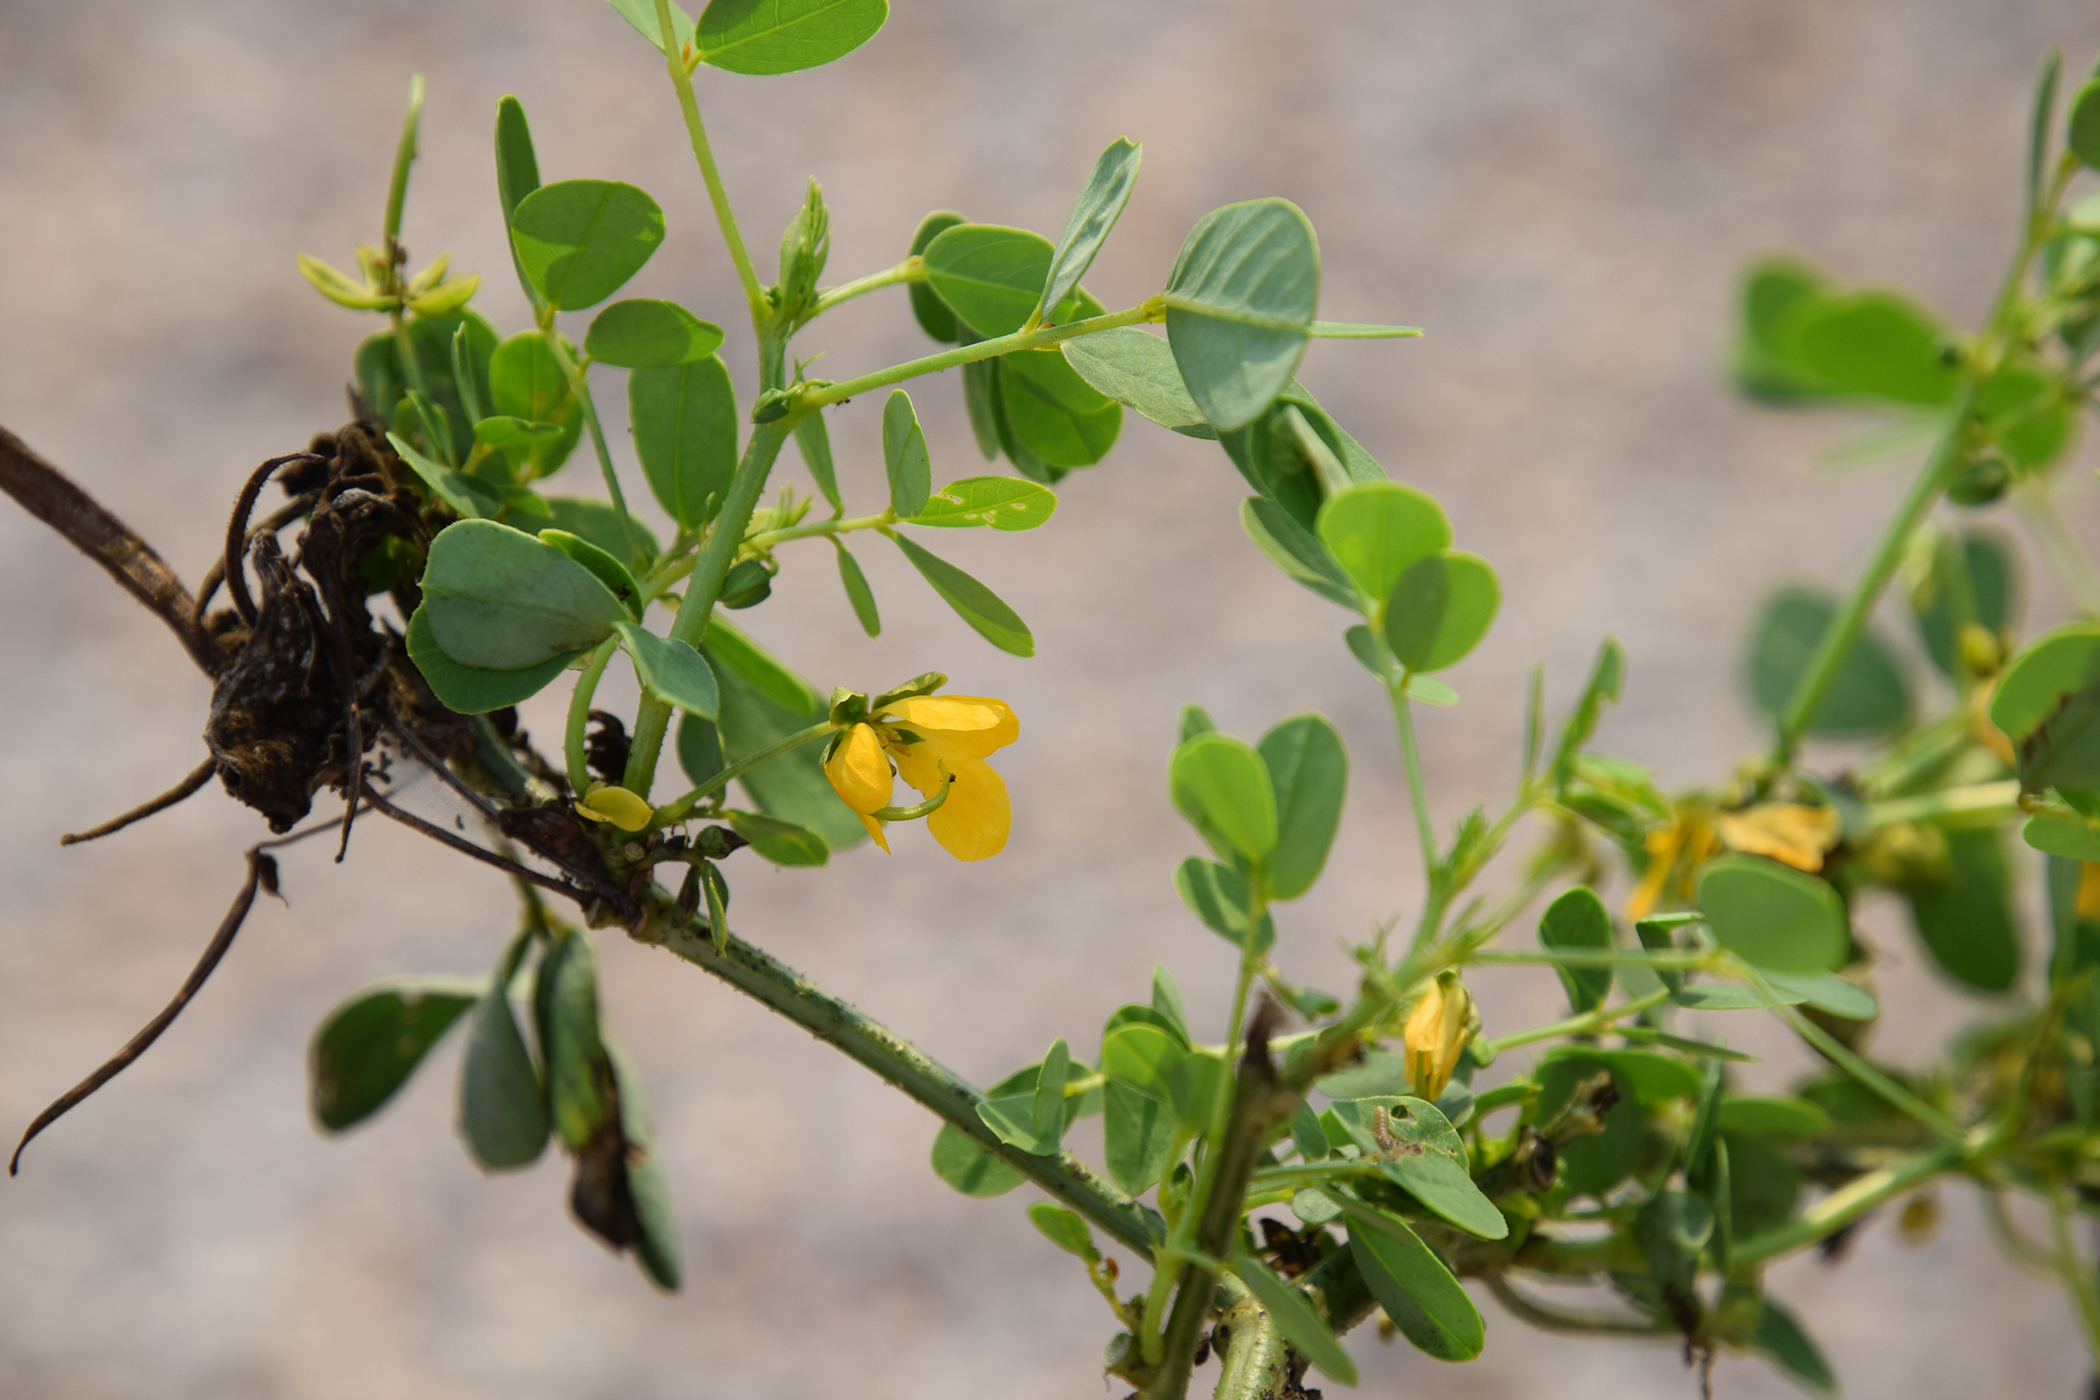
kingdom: Plantae
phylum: Tracheophyta
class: Magnoliopsida
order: Fabales
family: Fabaceae
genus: Senna
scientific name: Senna obtusifolia
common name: Java-bean
